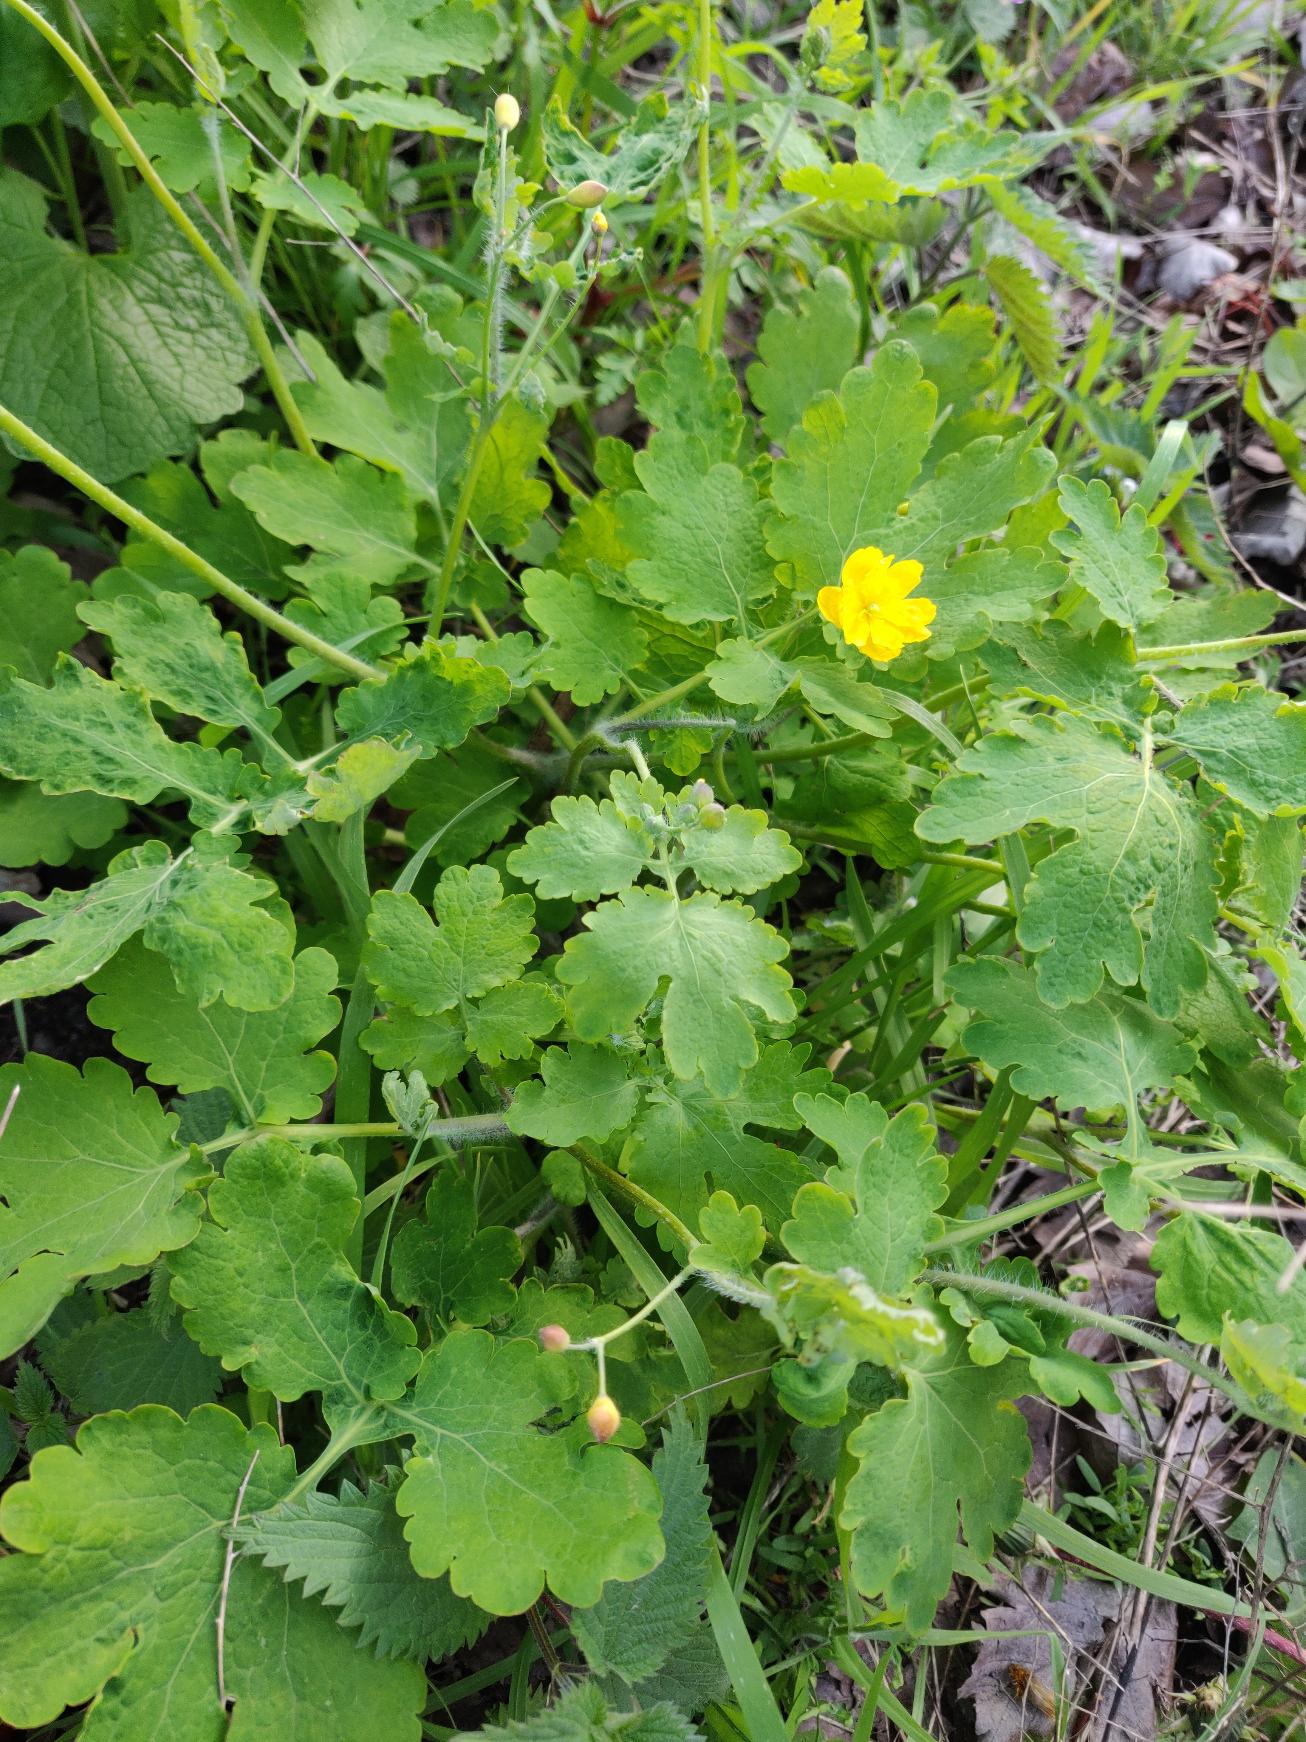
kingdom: Plantae
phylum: Tracheophyta
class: Magnoliopsida
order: Ranunculales
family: Papaveraceae
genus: Chelidonium
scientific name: Chelidonium majus
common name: Svaleurt
